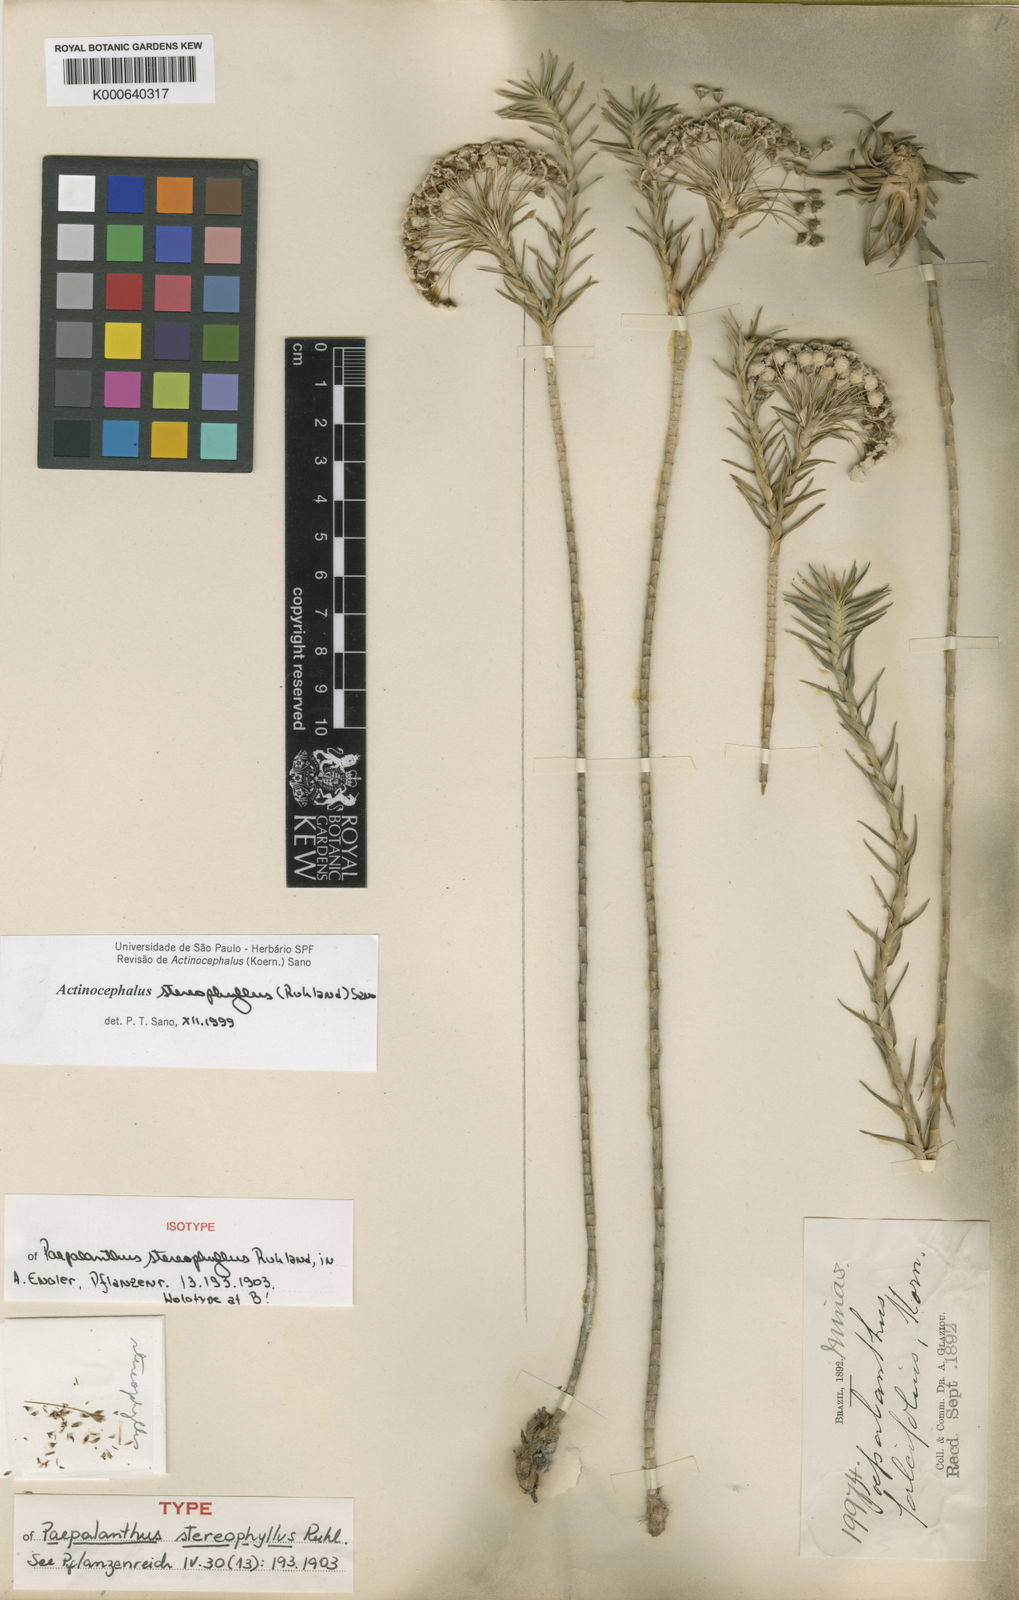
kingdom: Plantae
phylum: Tracheophyta
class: Liliopsida
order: Poales
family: Eriocaulaceae
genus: Paepalanthus
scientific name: Paepalanthus stereophyllus
